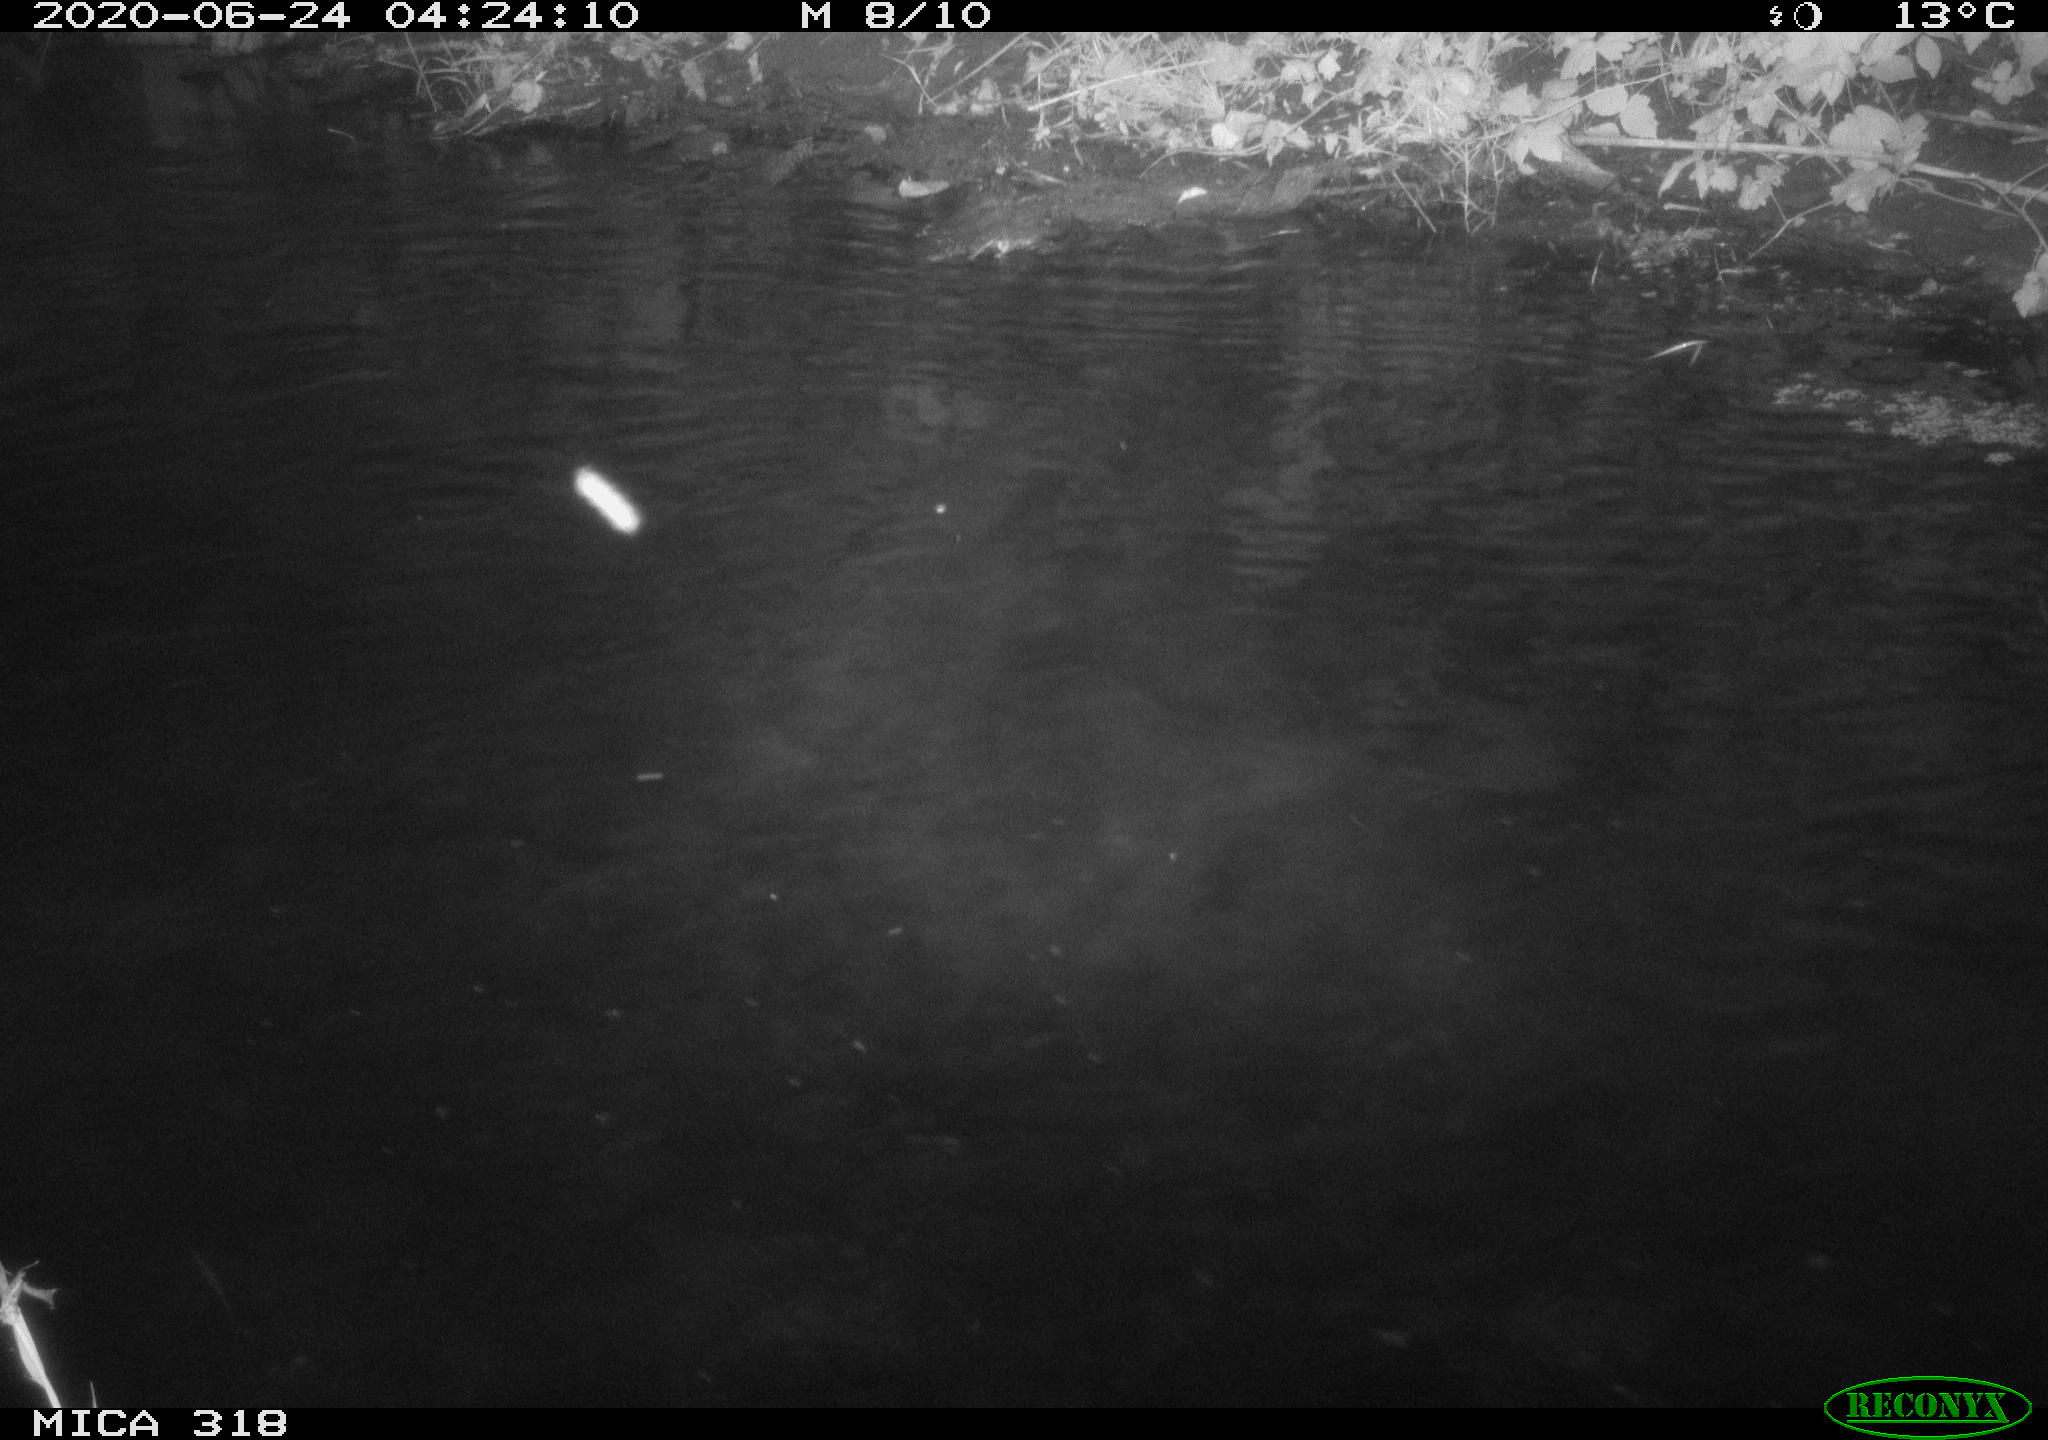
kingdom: Animalia
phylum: Chordata
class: Aves
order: Anseriformes
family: Anatidae
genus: Anas
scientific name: Anas platyrhynchos
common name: Mallard
